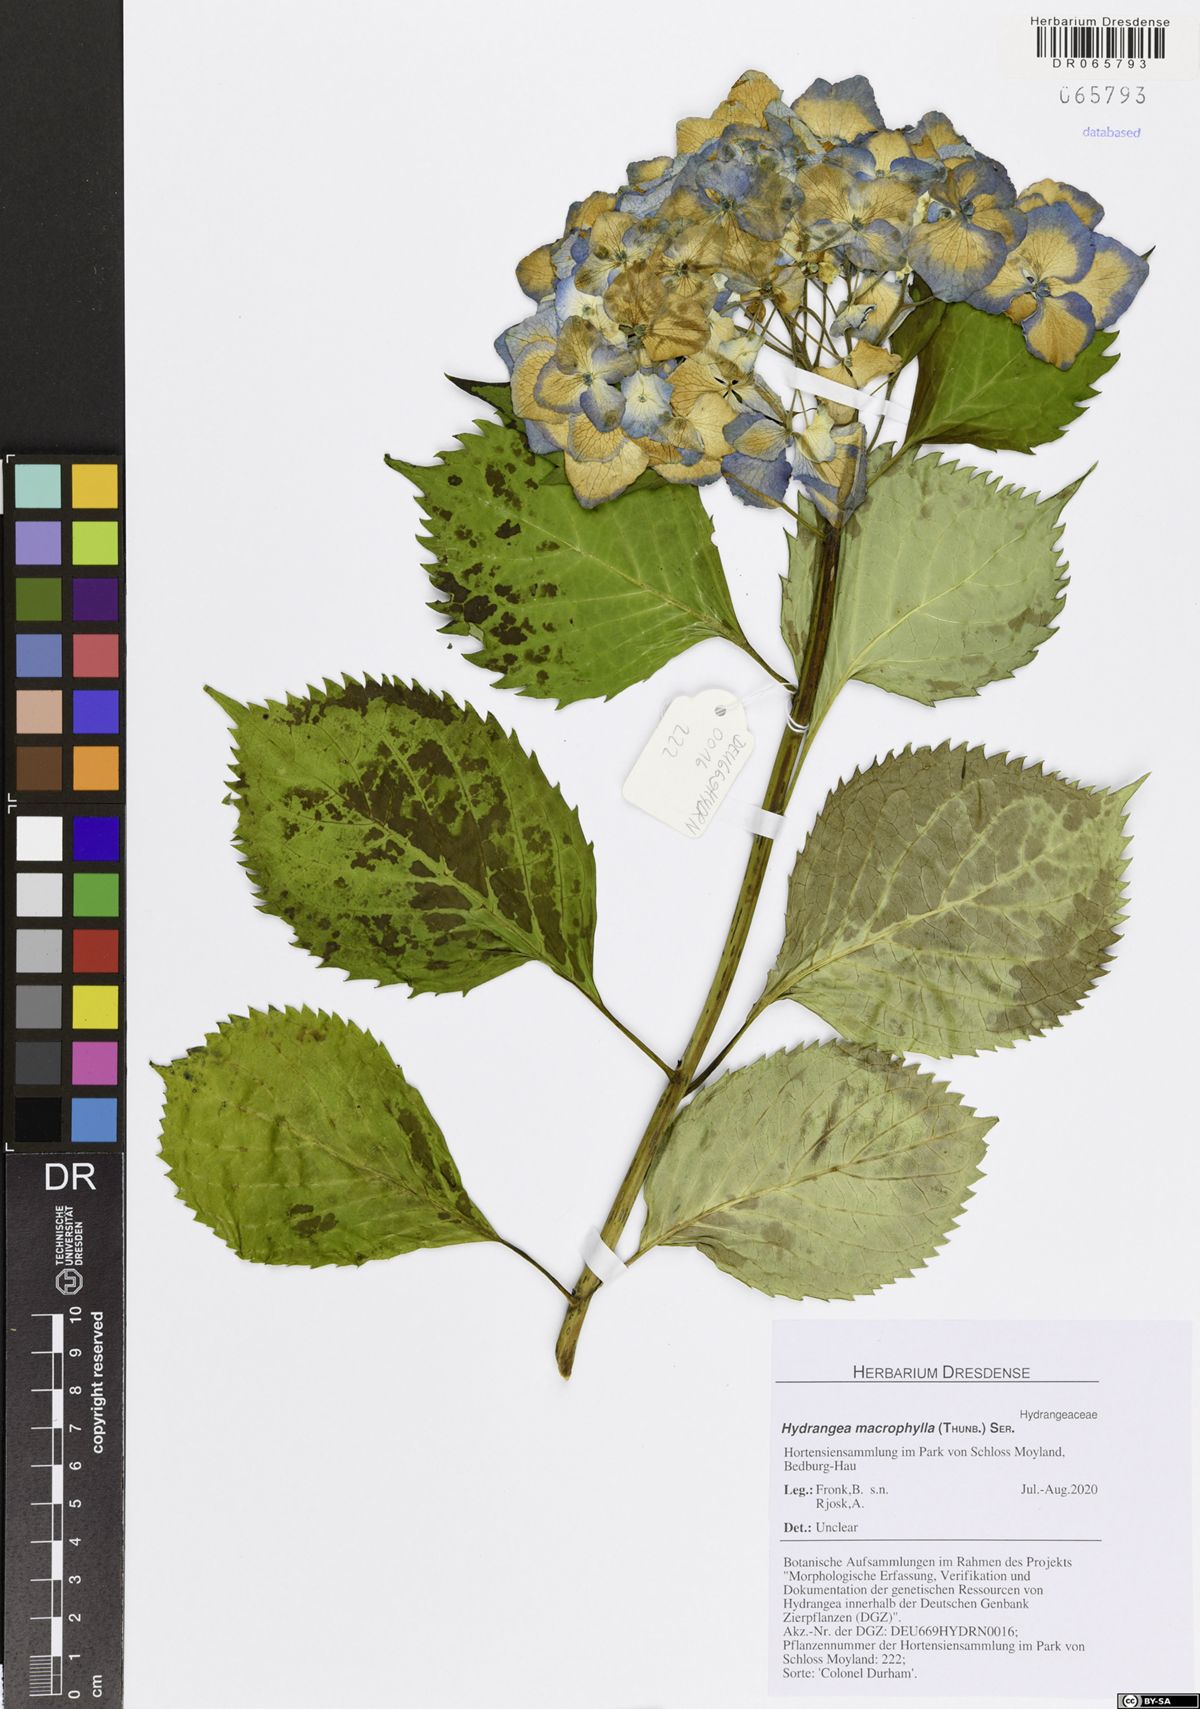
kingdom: Plantae
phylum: Tracheophyta
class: Magnoliopsida
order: Cornales
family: Hydrangeaceae
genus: Hydrangea
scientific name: Hydrangea macrophylla
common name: Hydrangea
